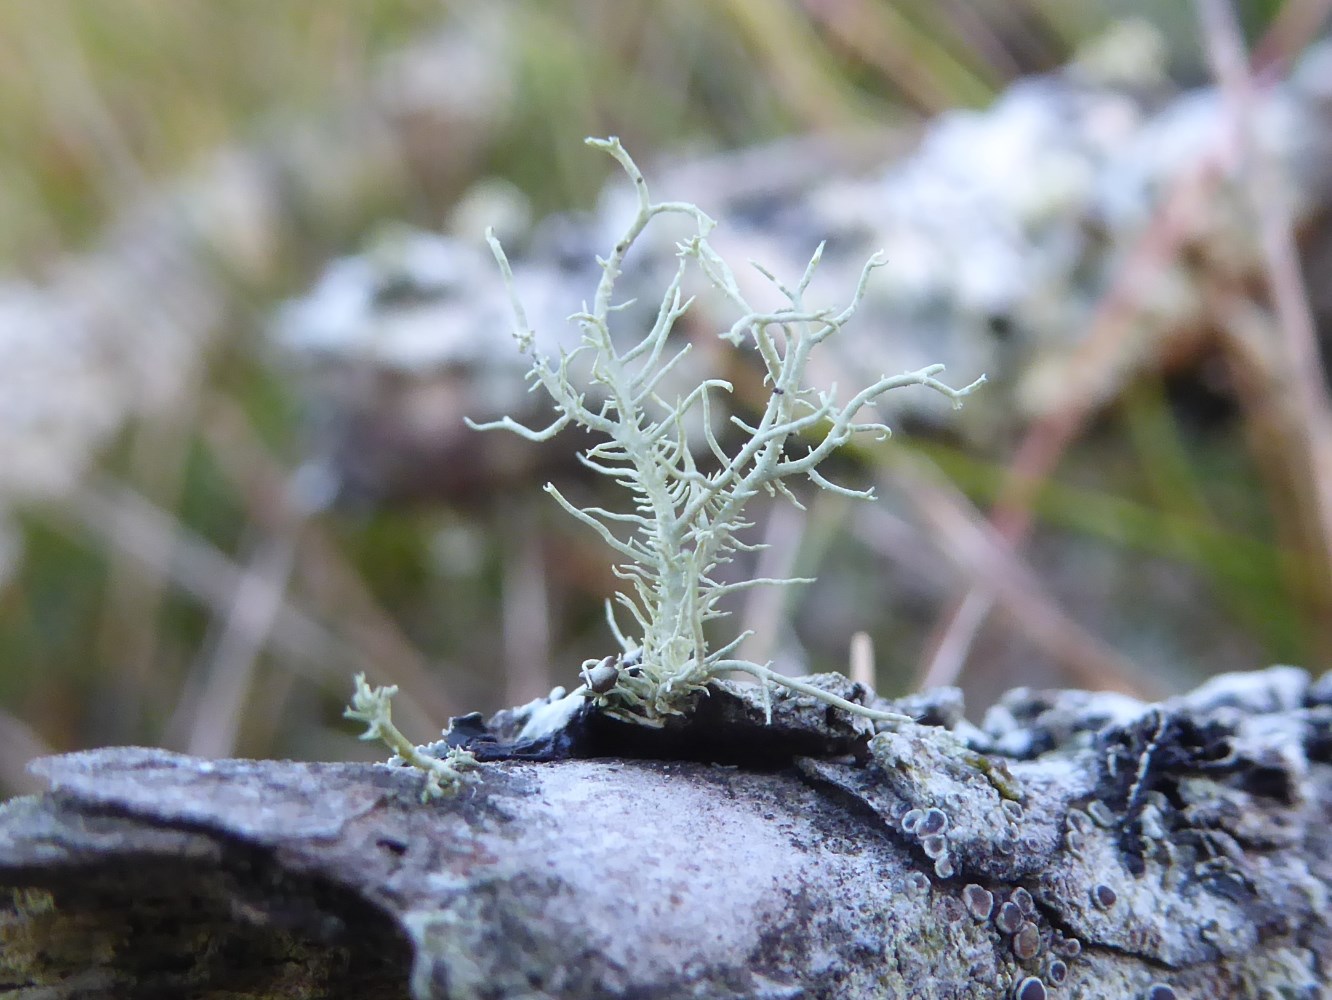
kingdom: Fungi
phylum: Ascomycota
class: Lecanoromycetes
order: Lecanorales
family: Parmeliaceae
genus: Usnea
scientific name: Usnea hirta
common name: liden skæglav
